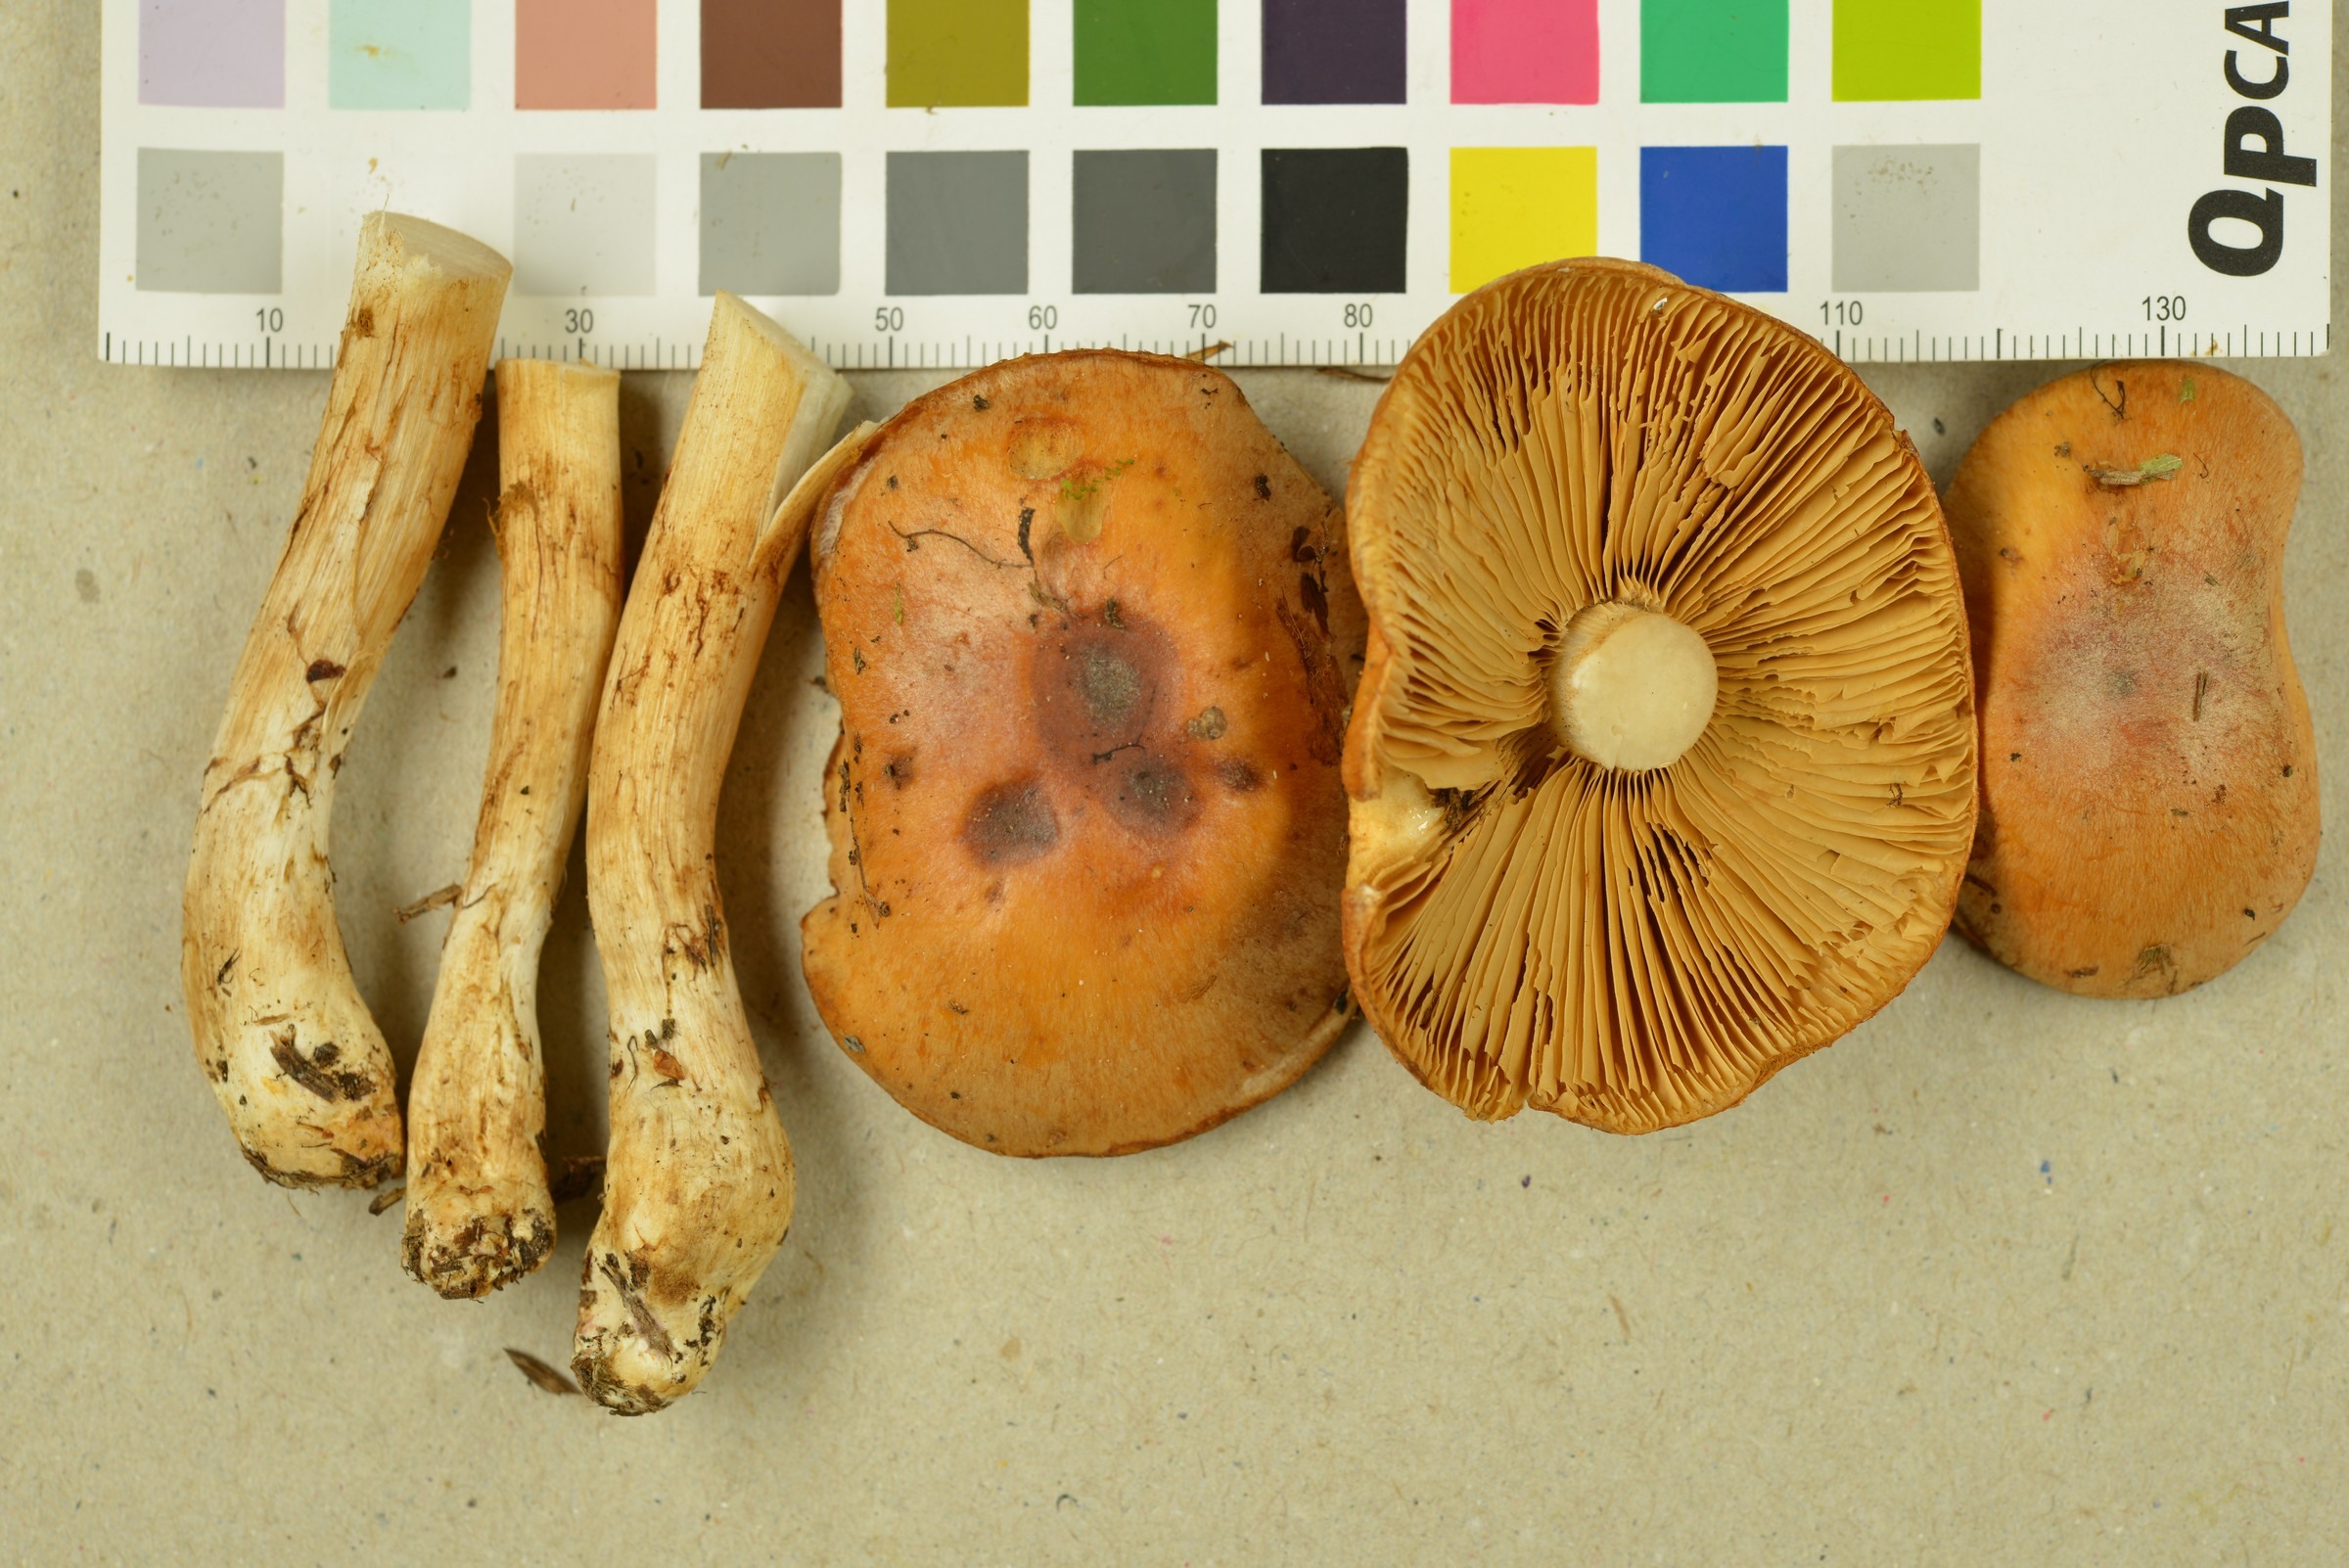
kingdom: Fungi
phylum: Basidiomycota
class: Agaricomycetes
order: Agaricales
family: Cortinariaceae
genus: Thaxterogaster
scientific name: Thaxterogaster turmalis
